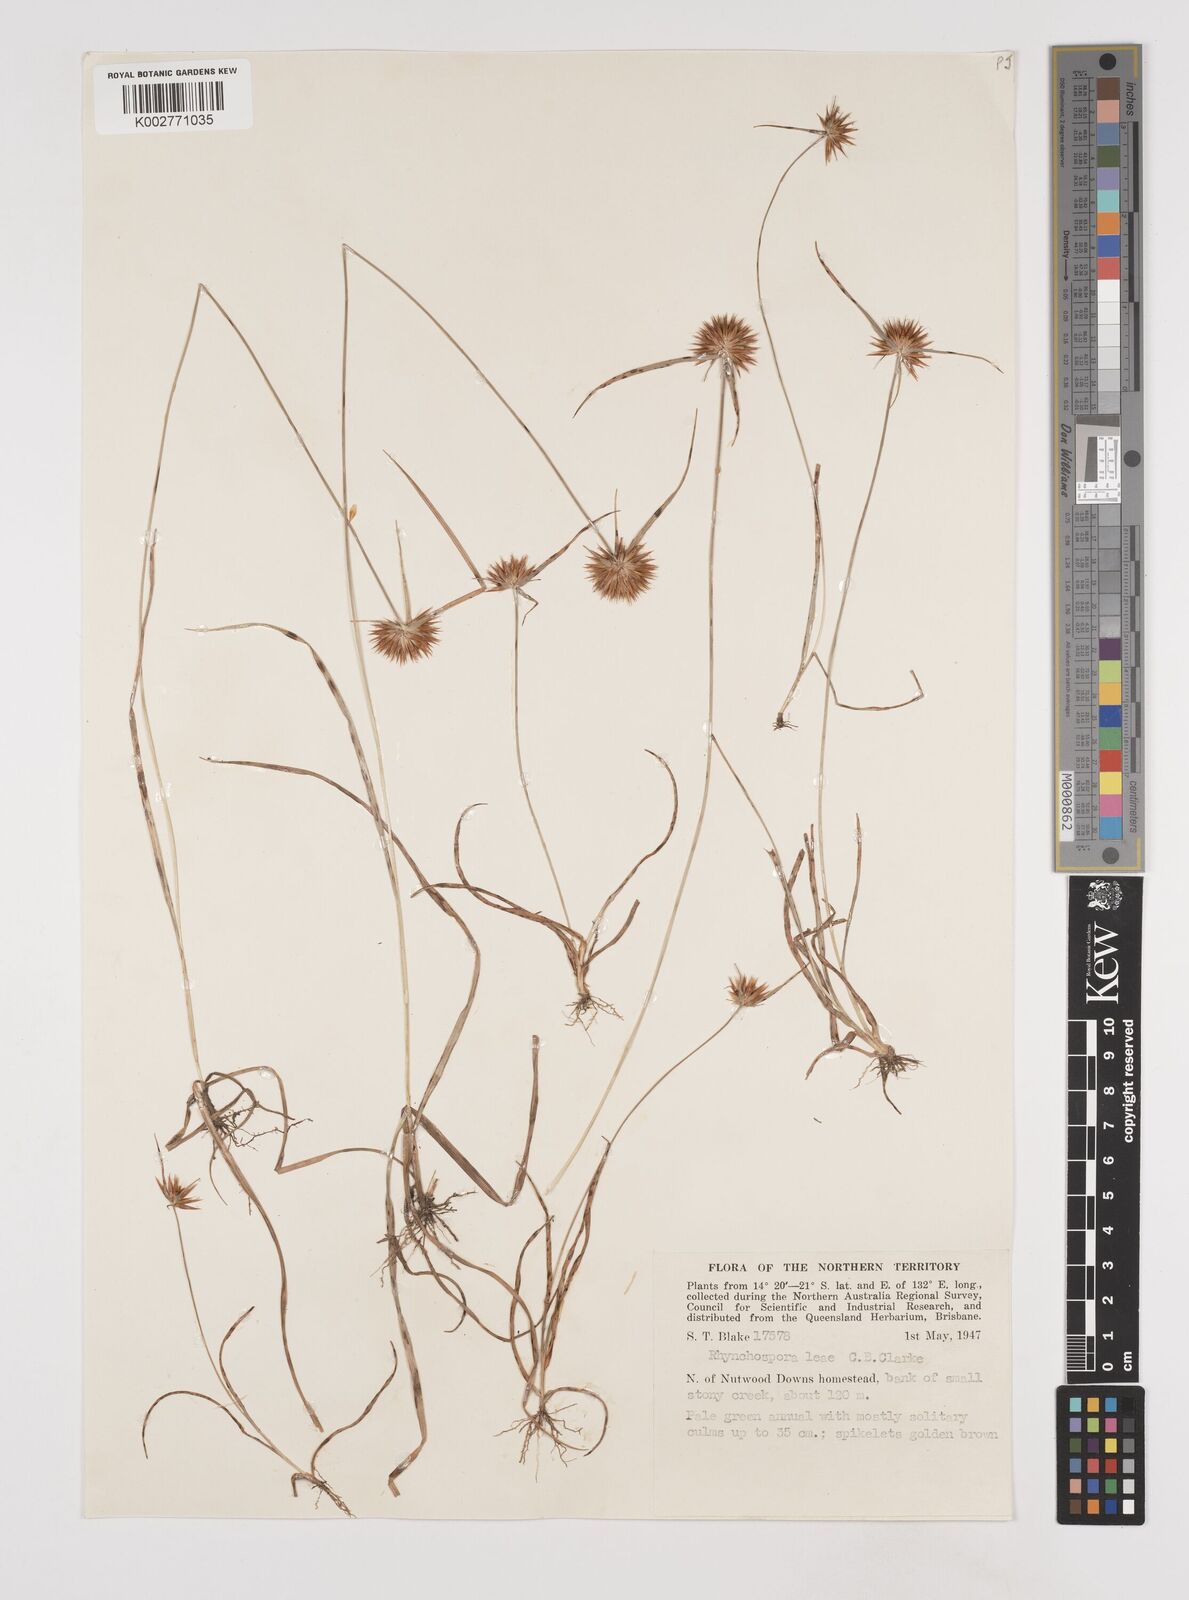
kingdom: Plantae
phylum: Tracheophyta
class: Liliopsida
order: Poales
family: Cyperaceae
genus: Rhynchospora
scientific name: Rhynchospora leae
